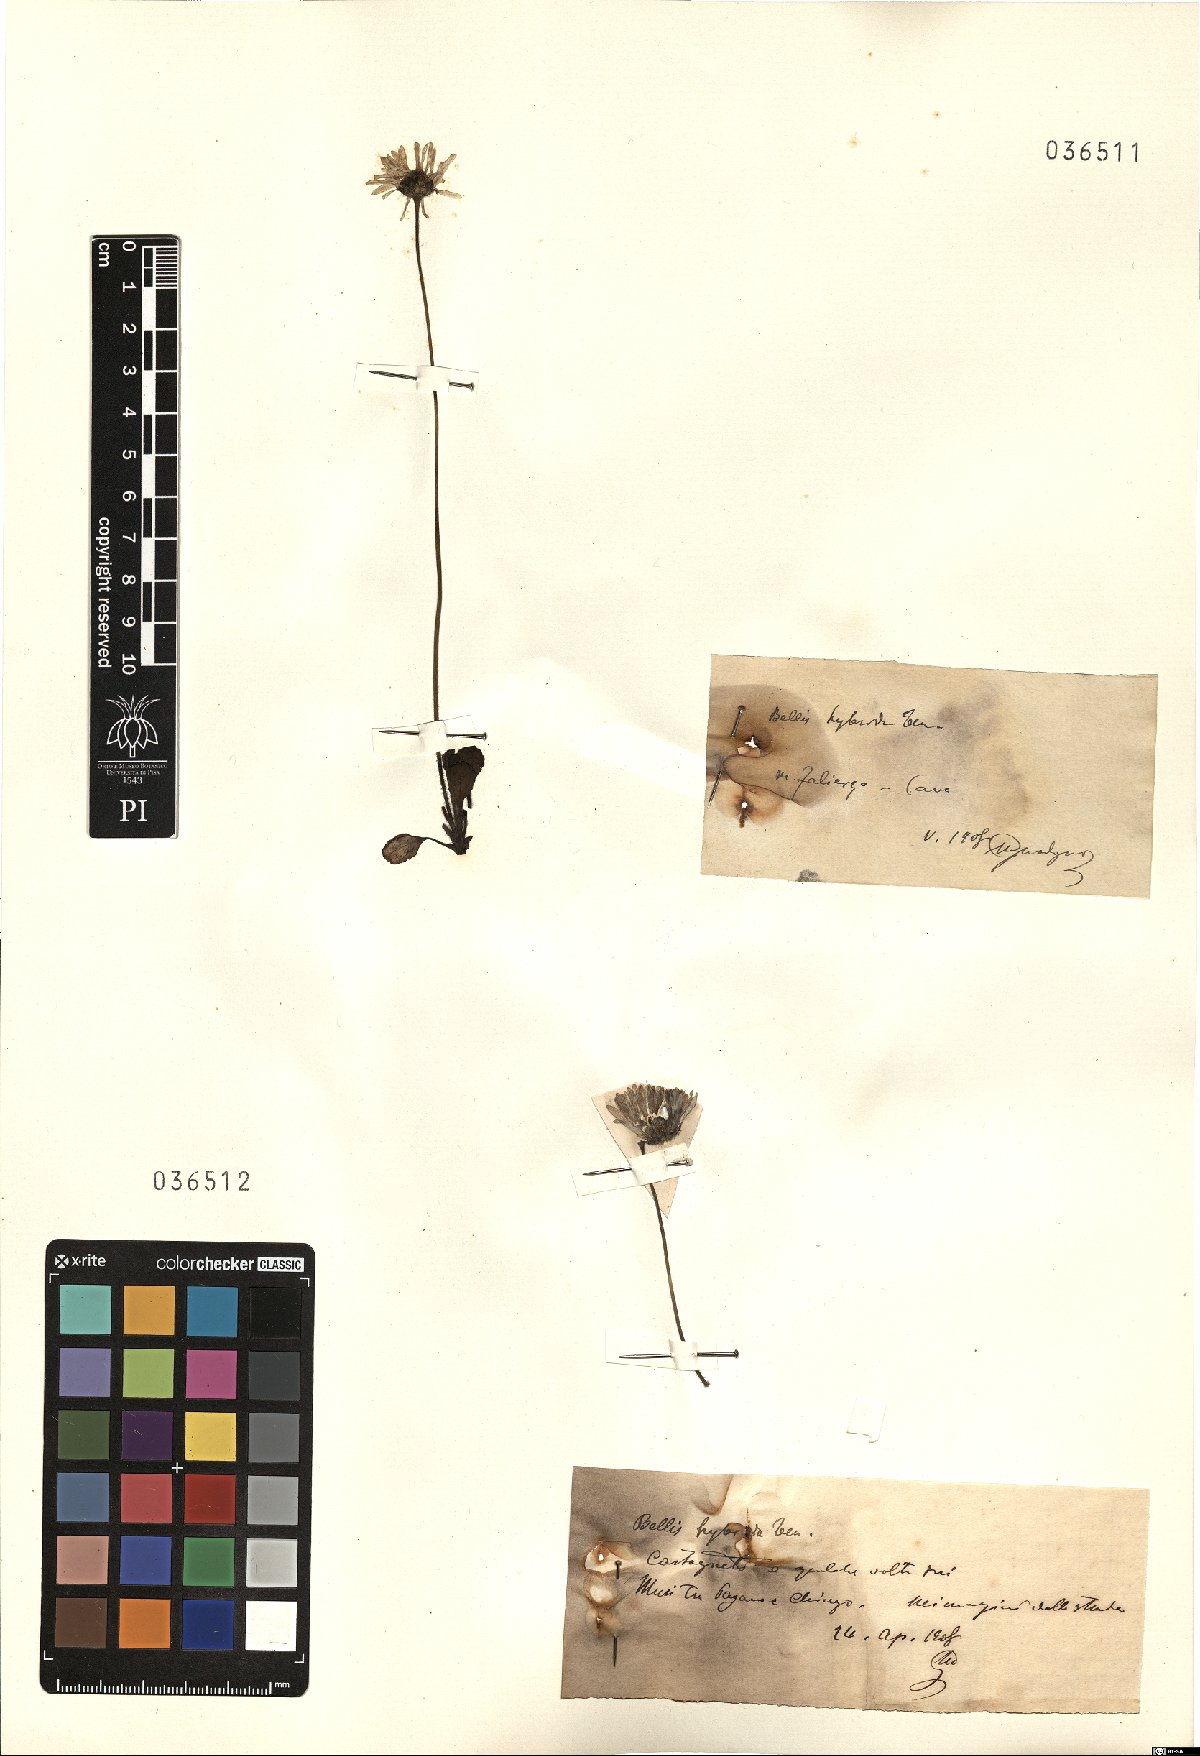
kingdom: Plantae
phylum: Tracheophyta
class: Magnoliopsida
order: Asterales
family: Asteraceae
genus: Bellis
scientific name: Bellis perennis
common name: Lawndaisy
